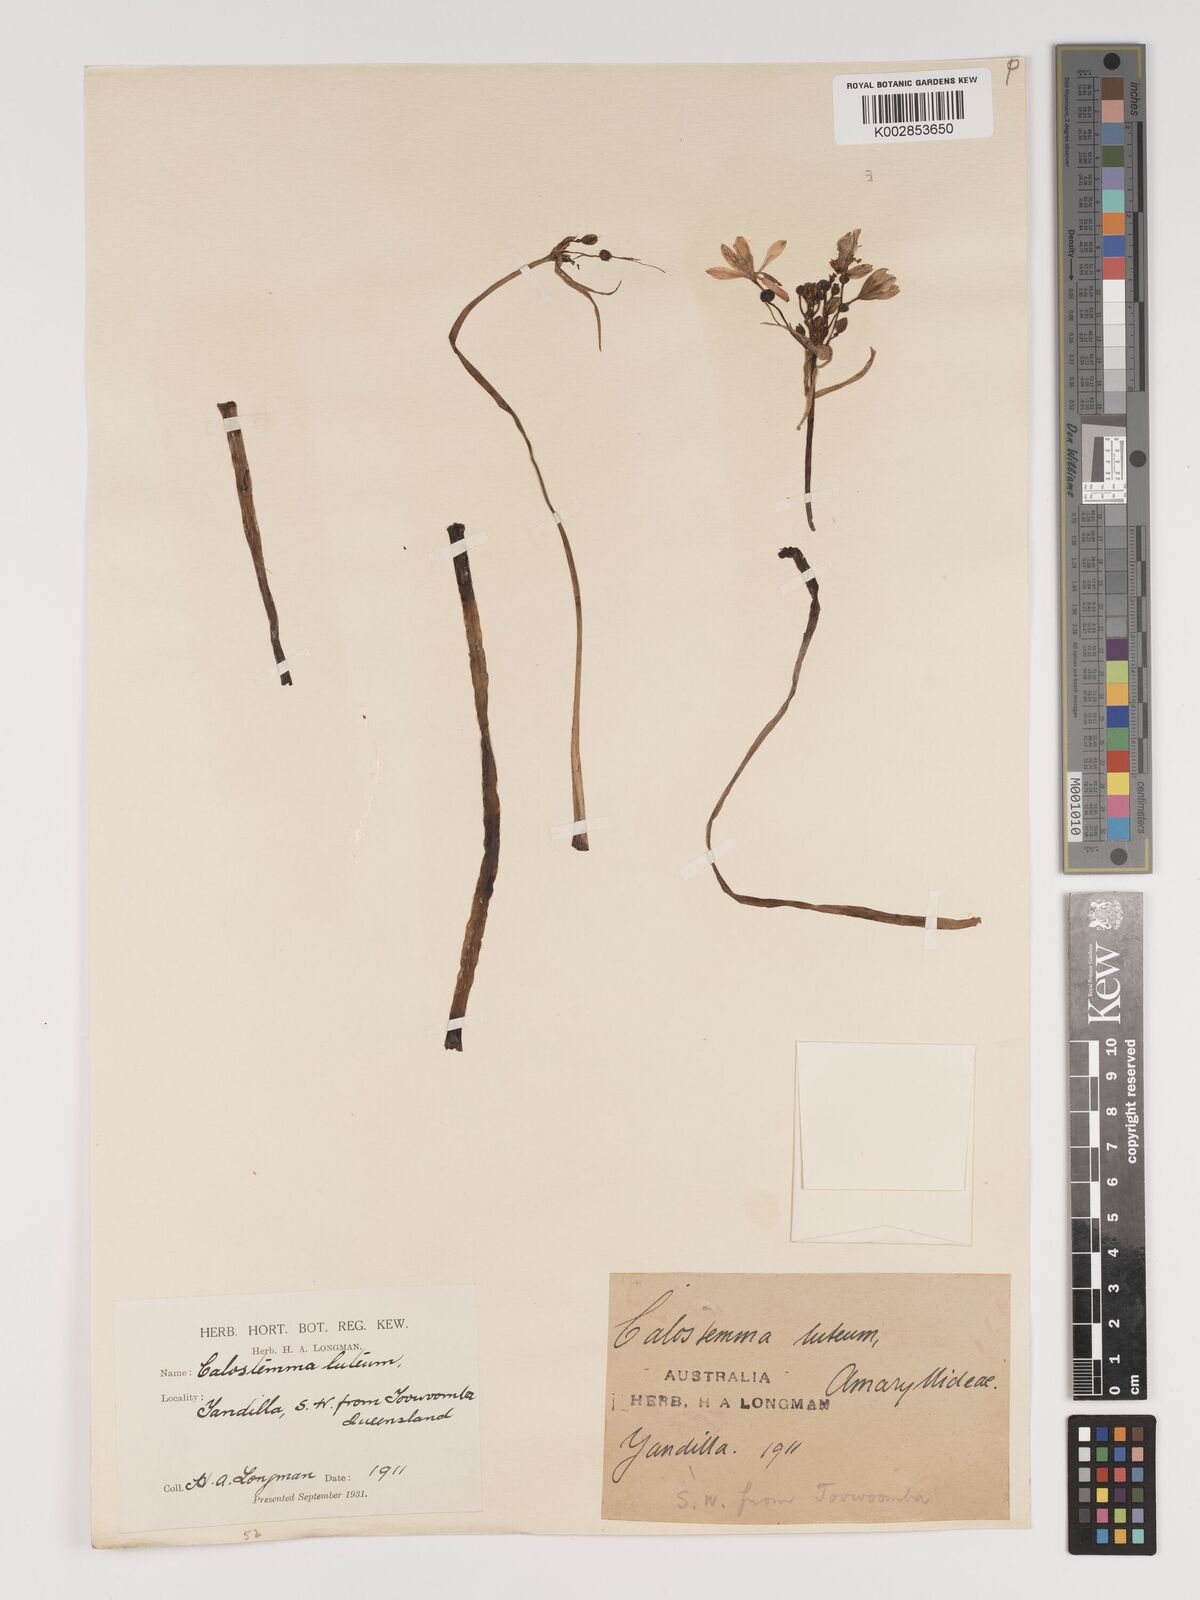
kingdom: Plantae
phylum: Tracheophyta
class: Liliopsida
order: Asparagales
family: Amaryllidaceae
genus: Calostemma
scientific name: Calostemma luteum
